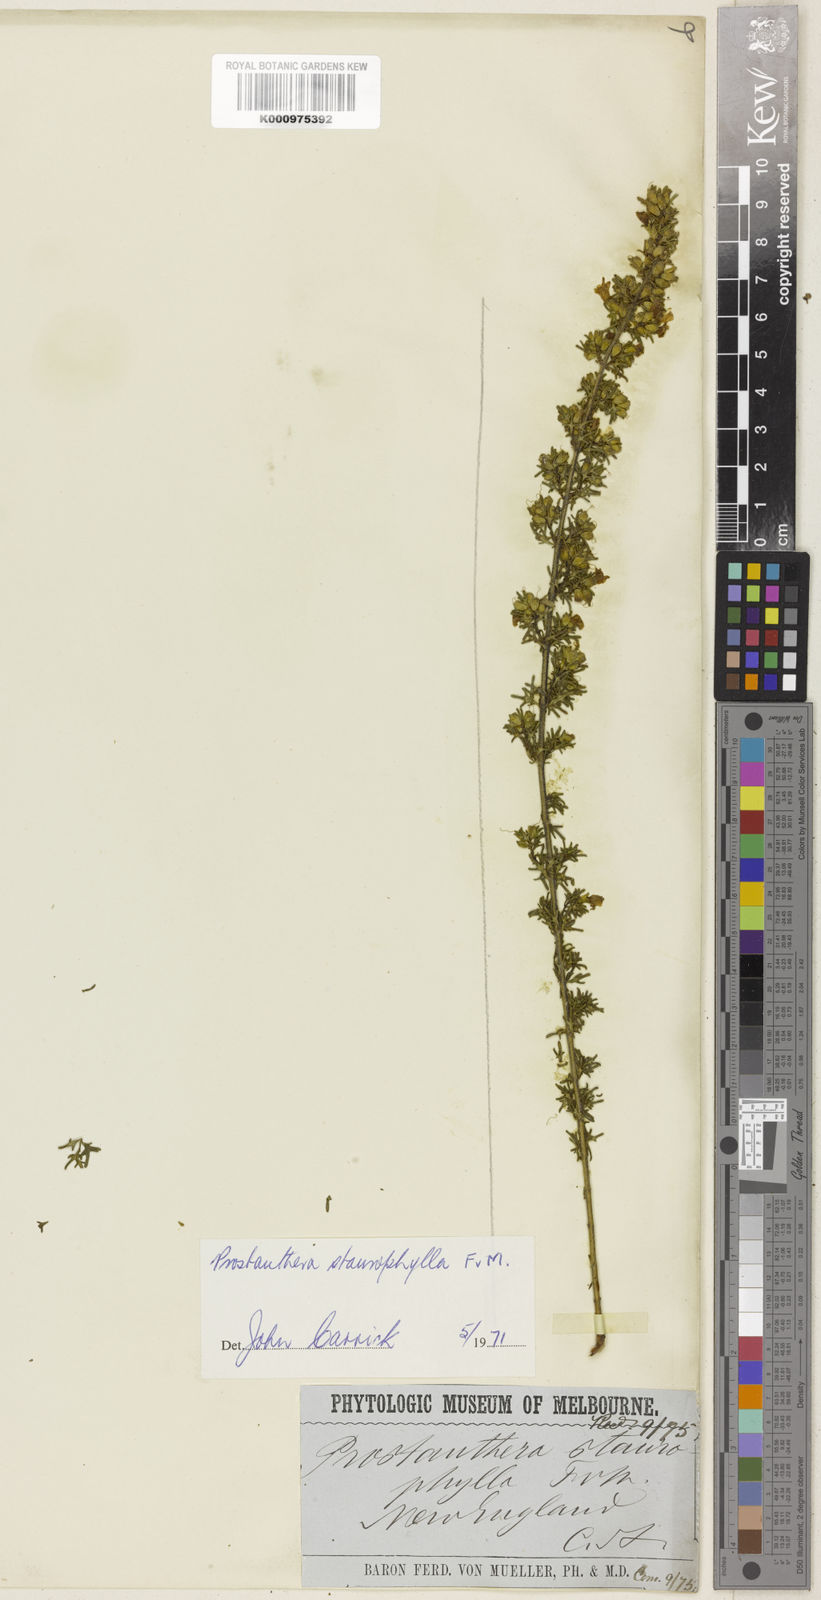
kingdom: Plantae
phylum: Tracheophyta
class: Magnoliopsida
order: Lamiales
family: Lamiaceae
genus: Prostanthera
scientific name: Prostanthera staurophylla
